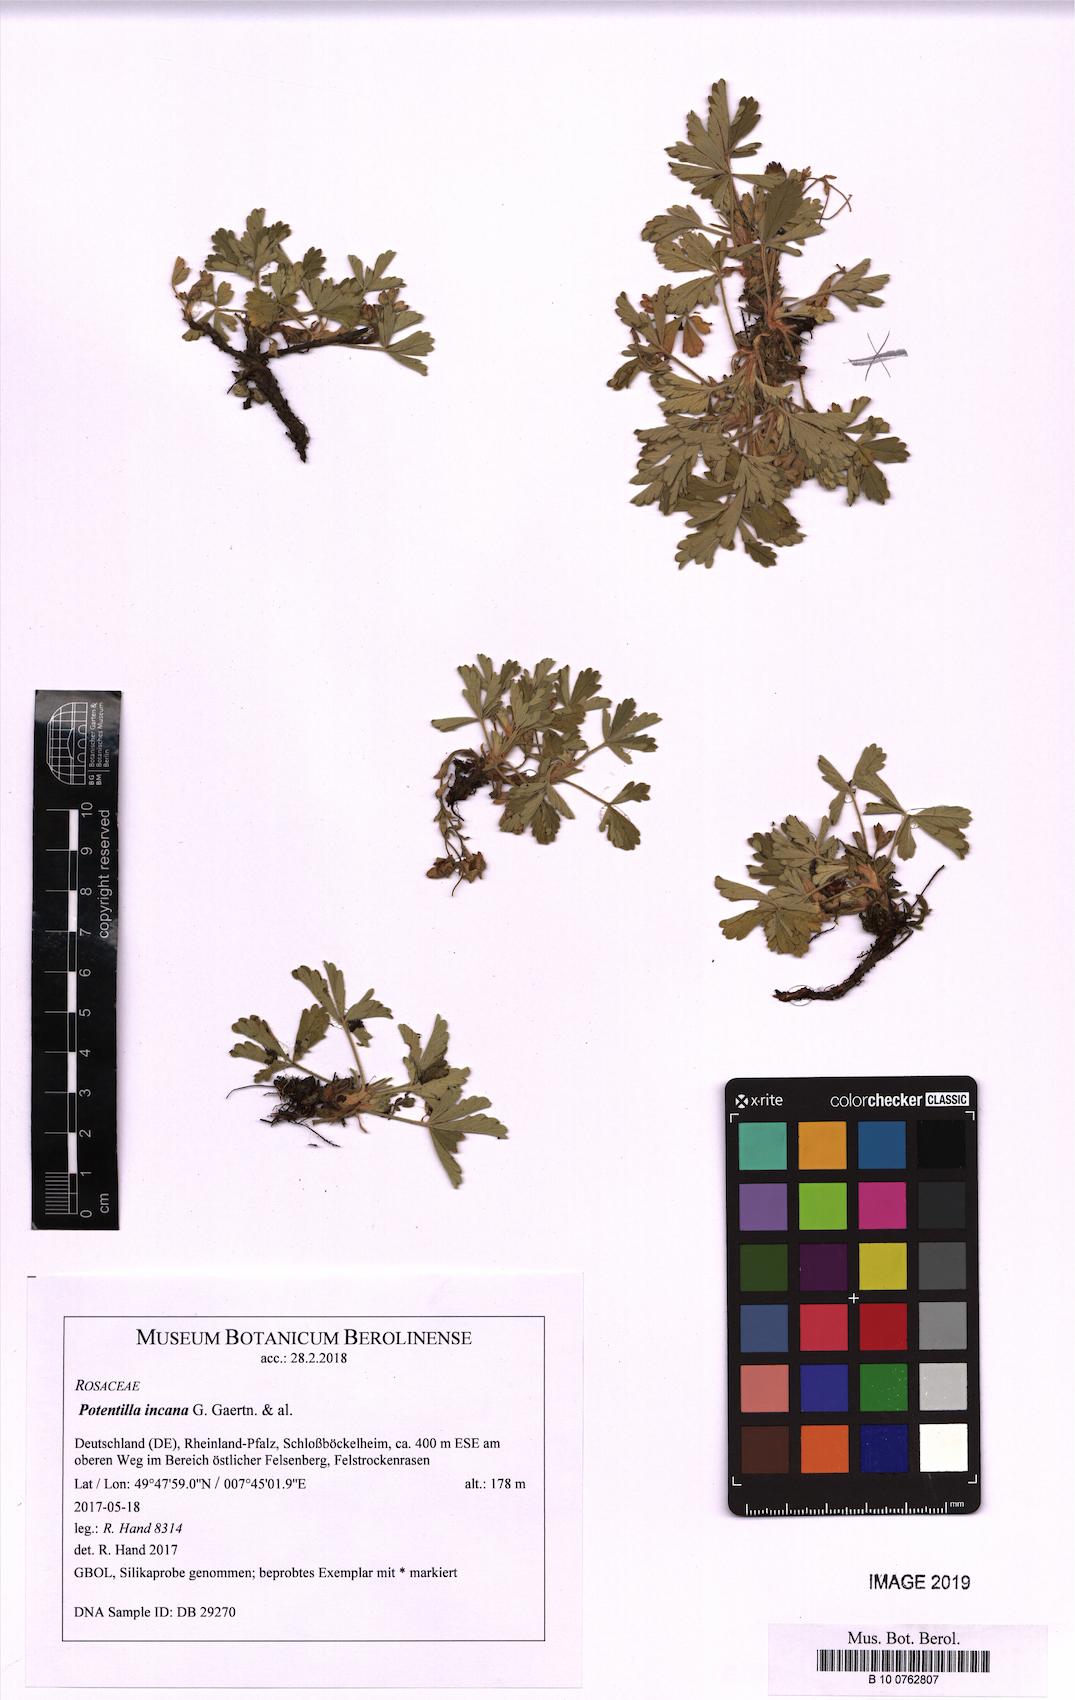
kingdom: Plantae
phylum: Tracheophyta
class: Magnoliopsida
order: Rosales
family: Rosaceae
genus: Potentilla
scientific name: Potentilla cinerea
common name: Ashy cinquefoil
